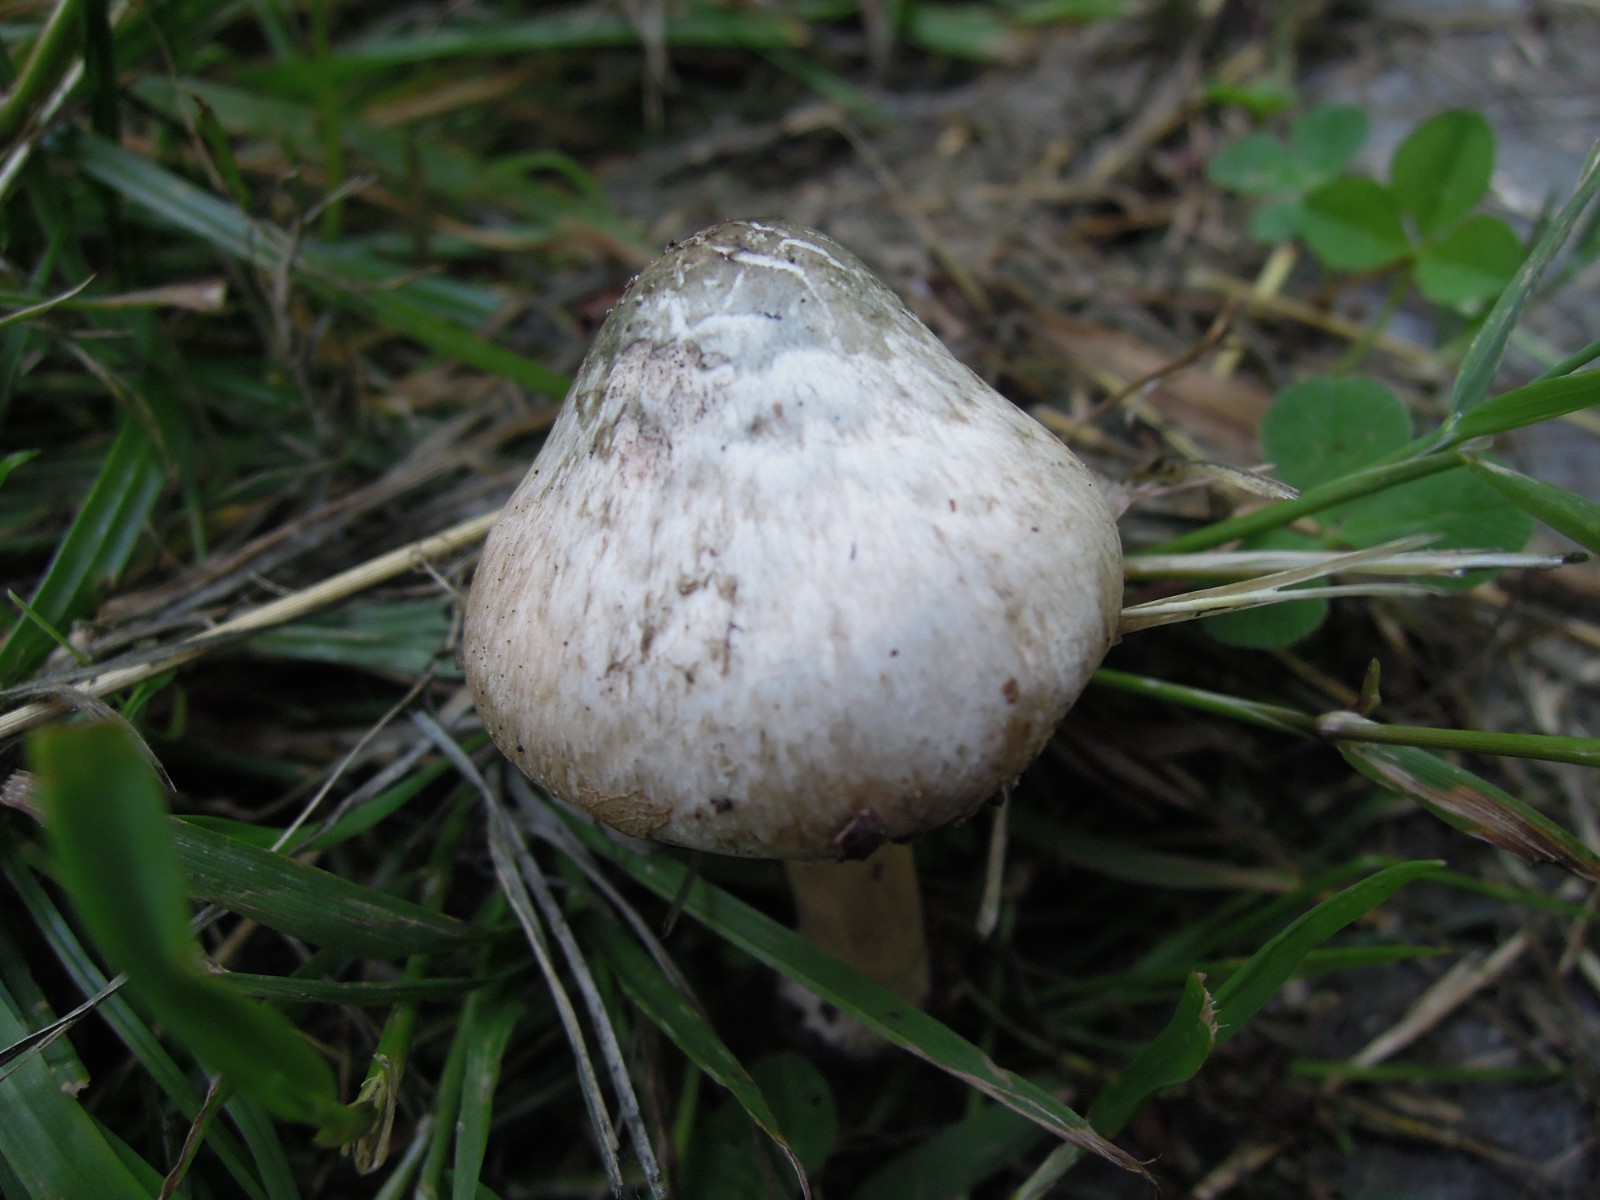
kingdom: Fungi
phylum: Basidiomycota
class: Agaricomycetes
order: Agaricales
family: Inocybaceae
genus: Inocybe
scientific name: Inocybe corydalina
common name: grønpuklet trævlhat
